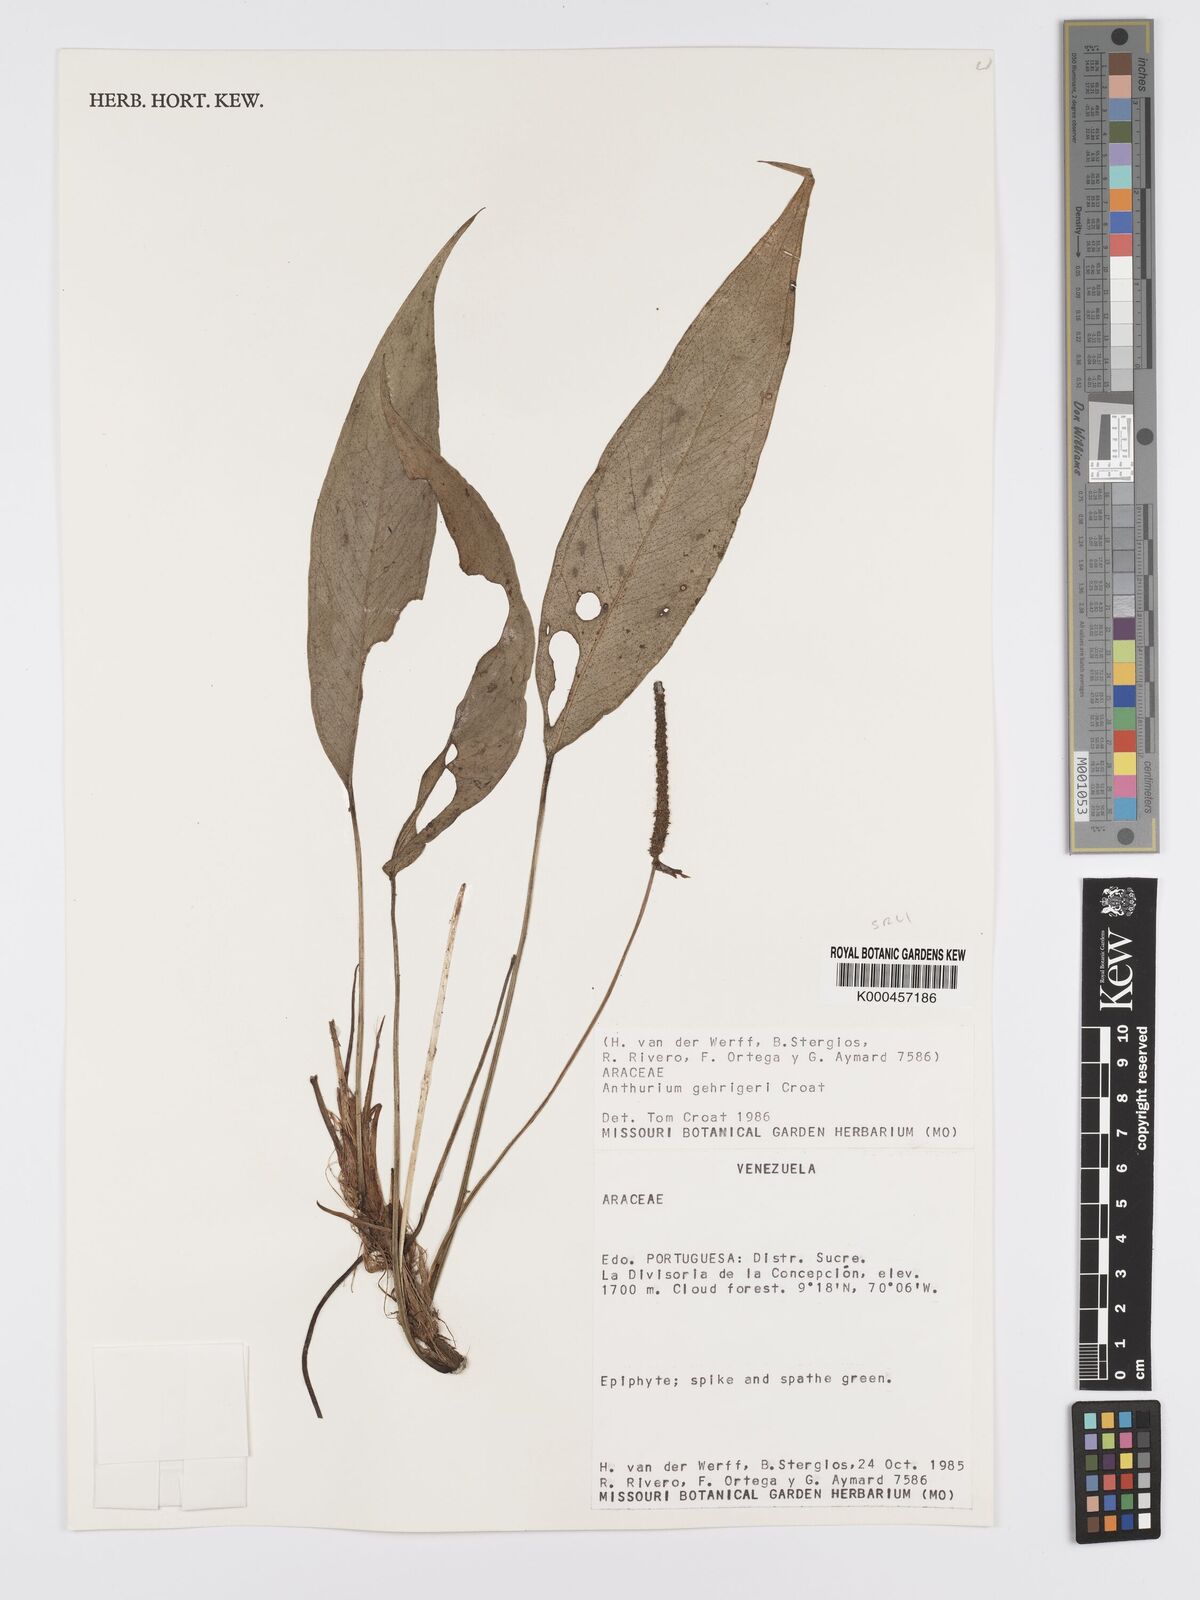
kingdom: Plantae
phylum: Tracheophyta
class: Liliopsida
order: Alismatales
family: Araceae
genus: Anthurium
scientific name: Anthurium gehrigeri
